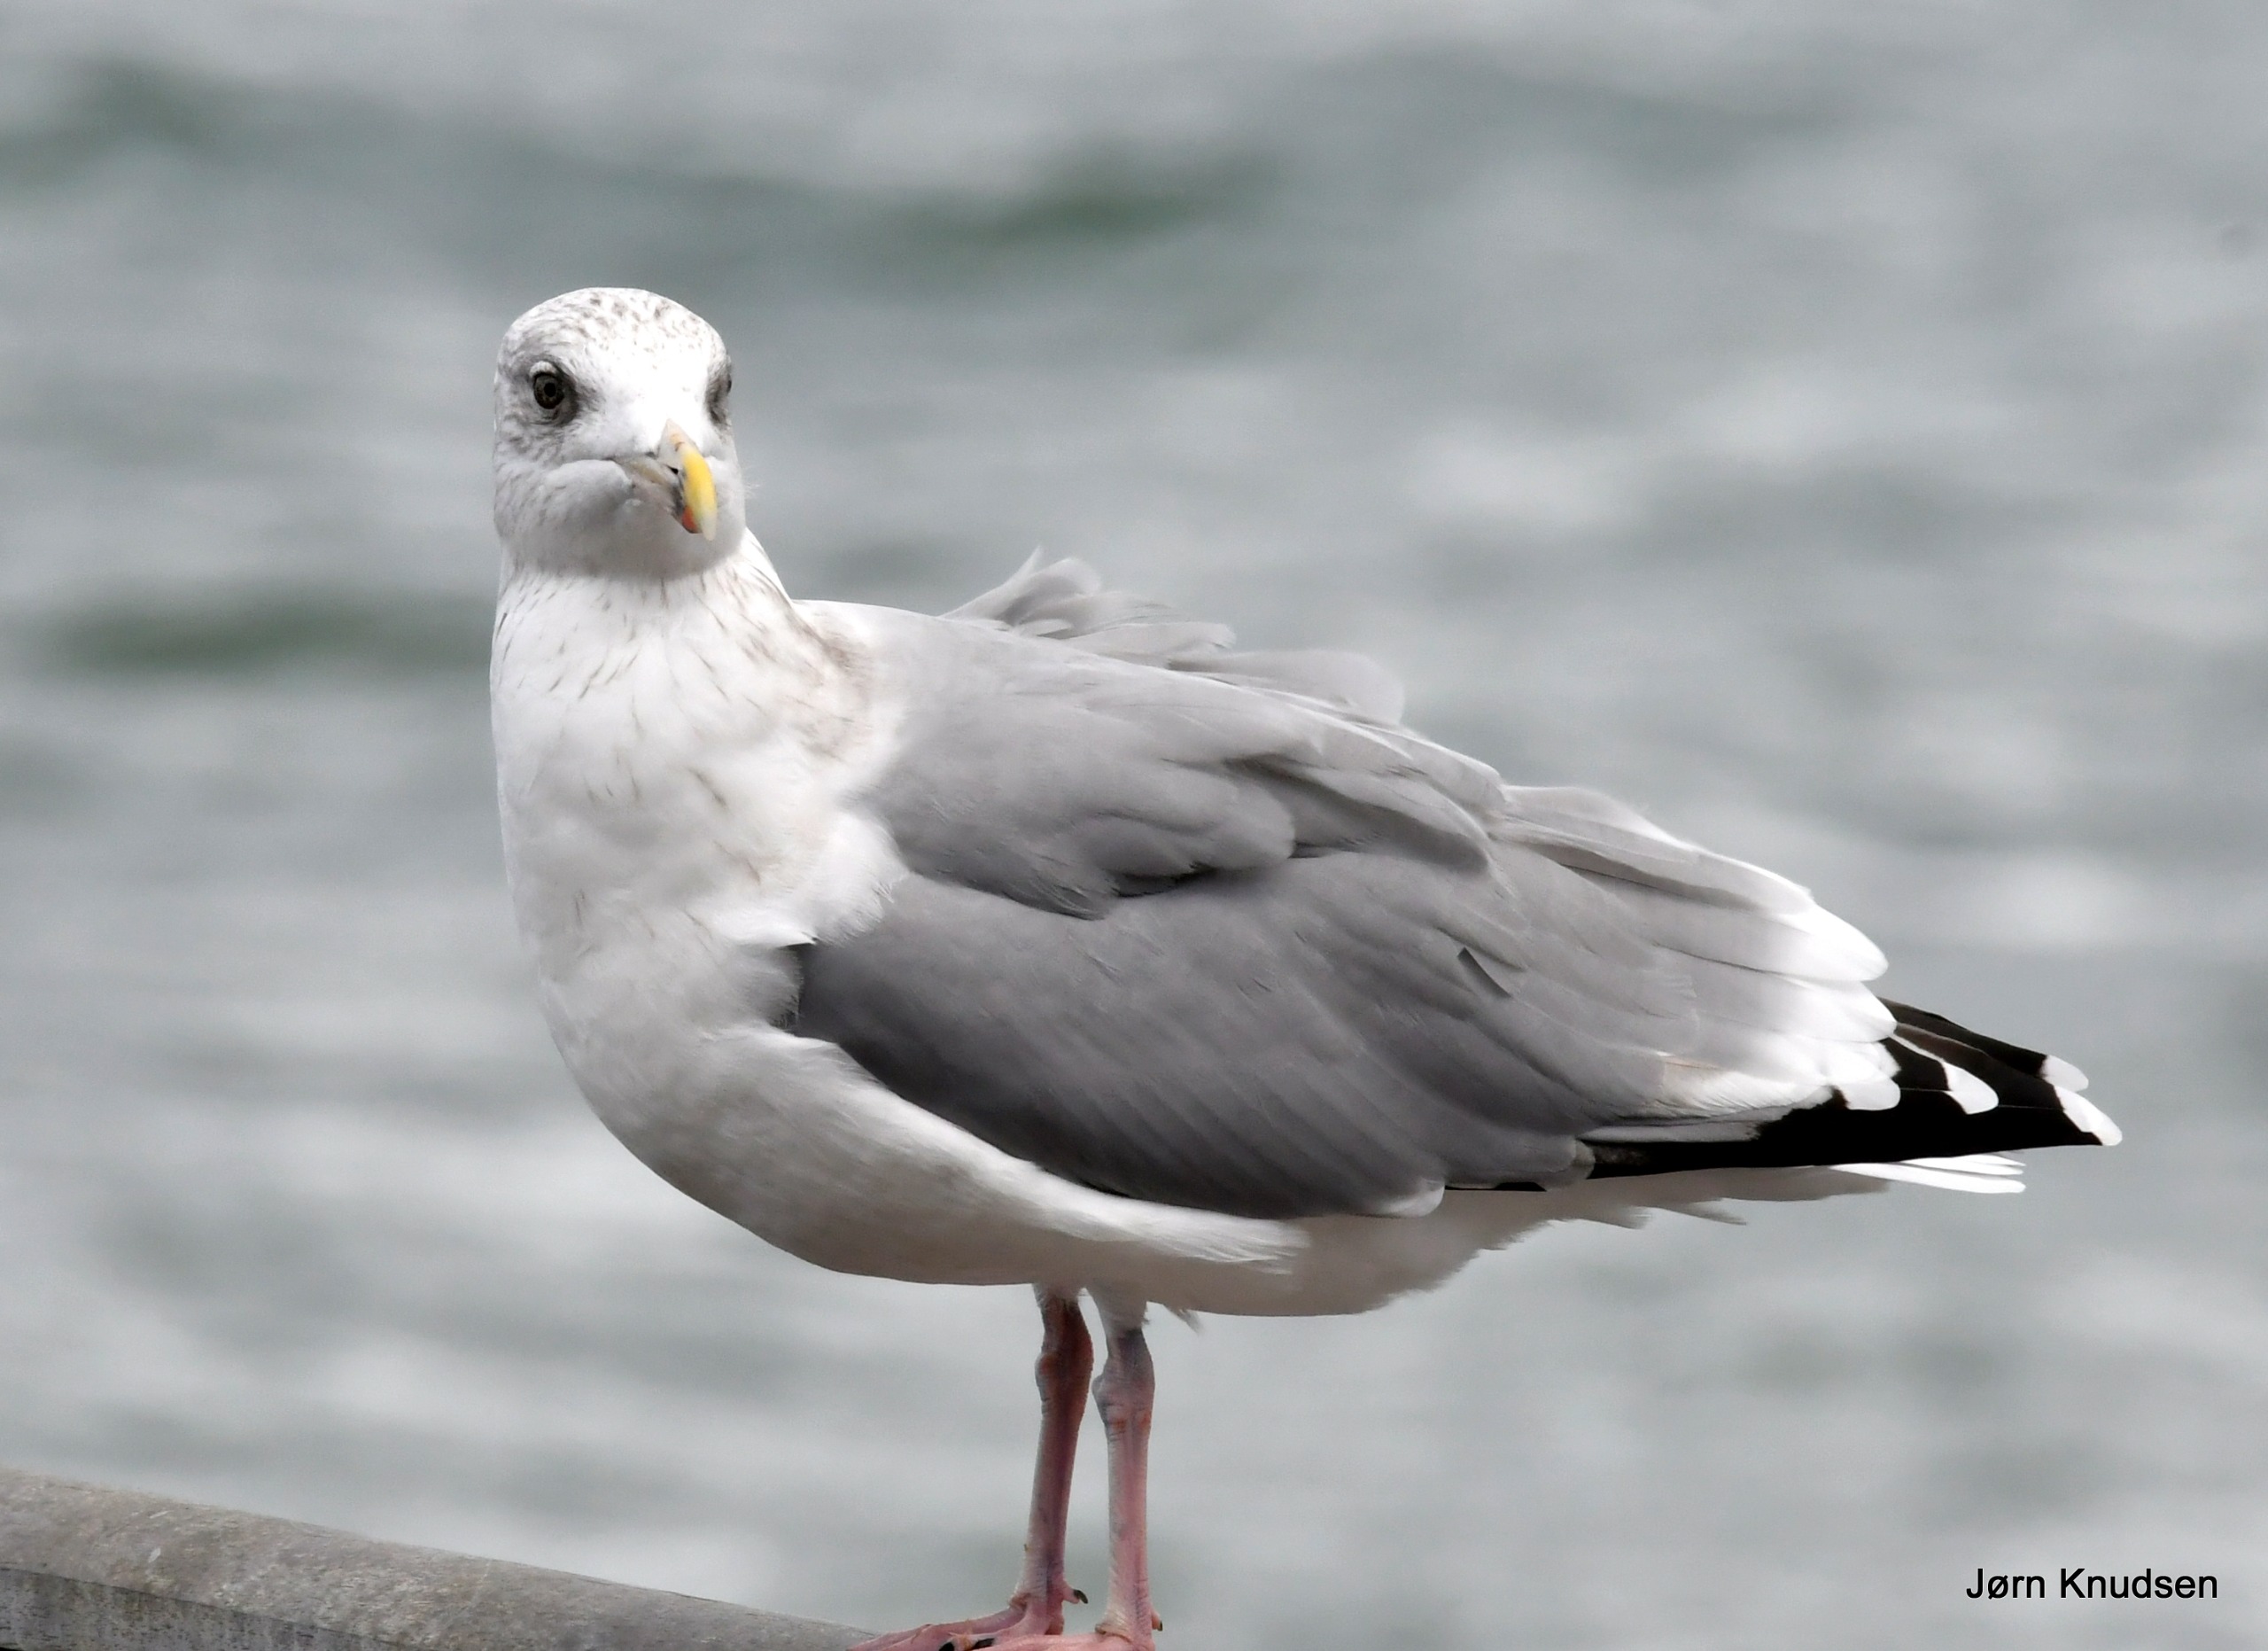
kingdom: Animalia
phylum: Chordata
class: Aves
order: Charadriiformes
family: Laridae
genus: Larus
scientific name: Larus argentatus
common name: Sølvmåge
